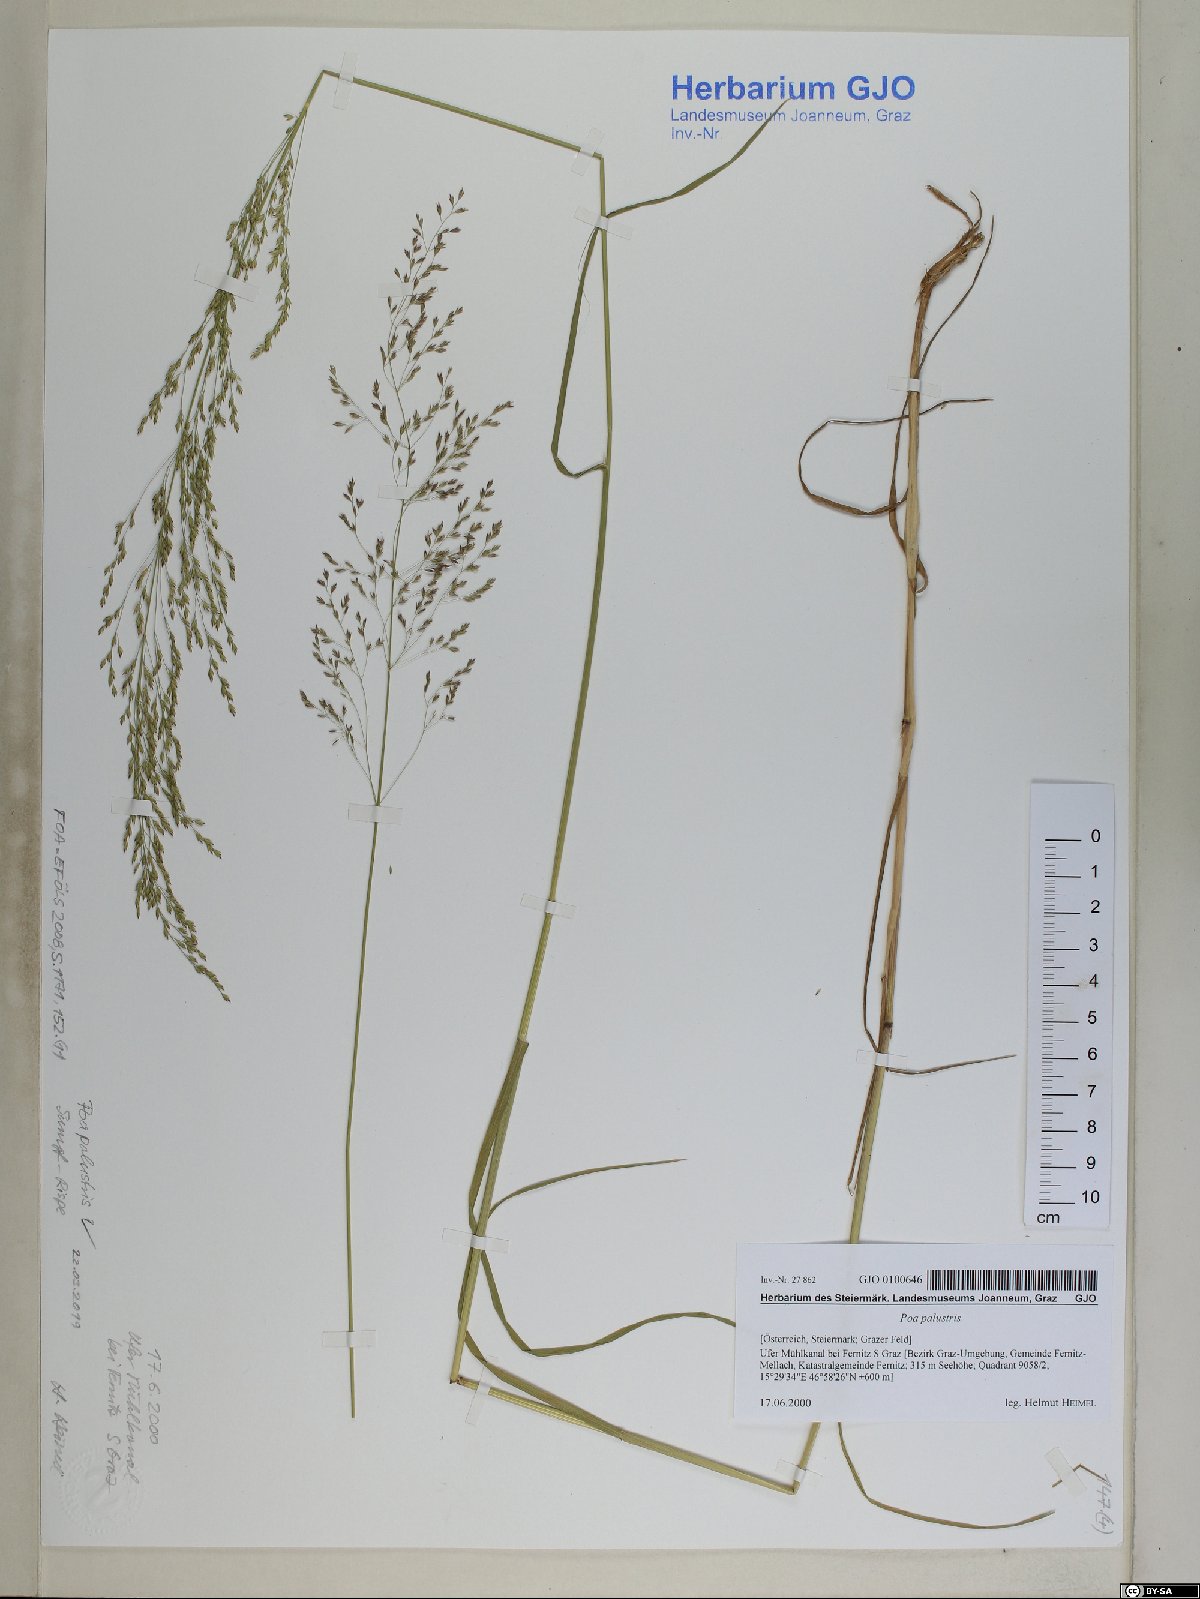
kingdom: Plantae
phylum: Tracheophyta
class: Liliopsida
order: Poales
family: Poaceae
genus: Poa
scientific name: Poa palustris
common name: Swamp meadow-grass
